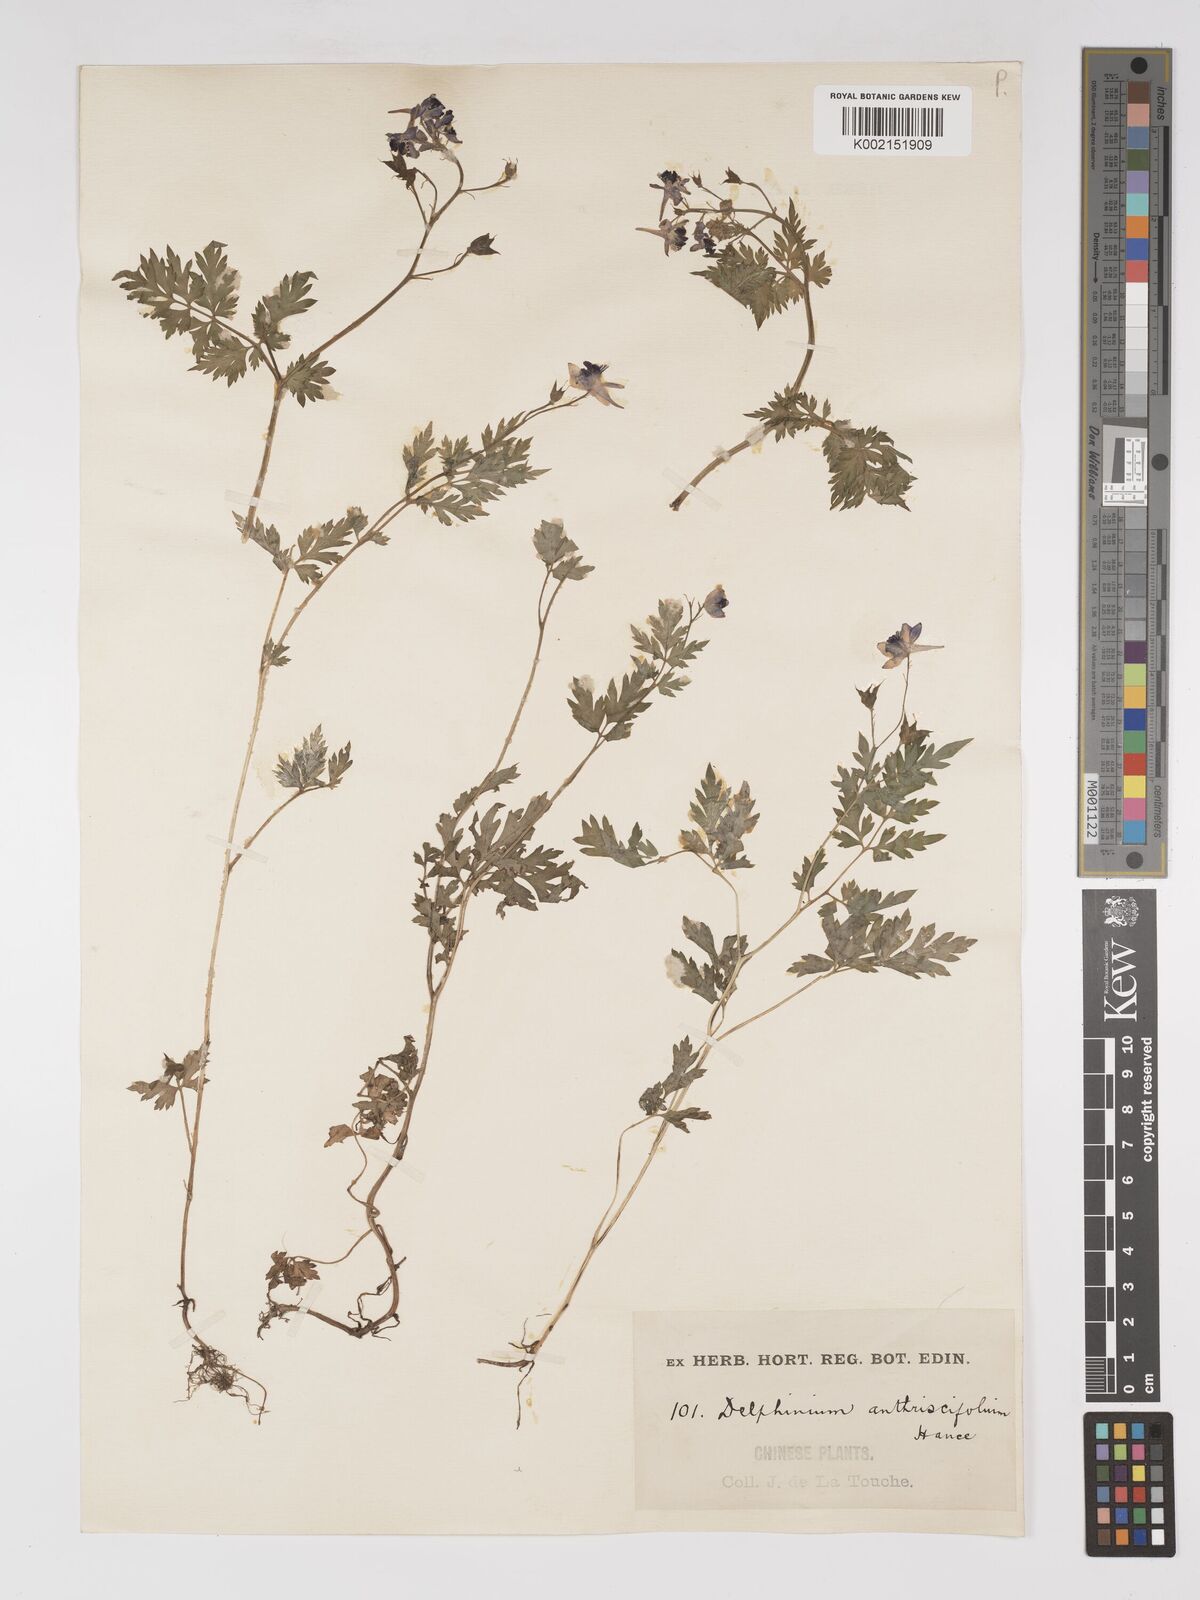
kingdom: Plantae
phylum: Tracheophyta
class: Magnoliopsida
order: Ranunculales
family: Ranunculaceae
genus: Delphinium
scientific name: Delphinium anthriscifolium
